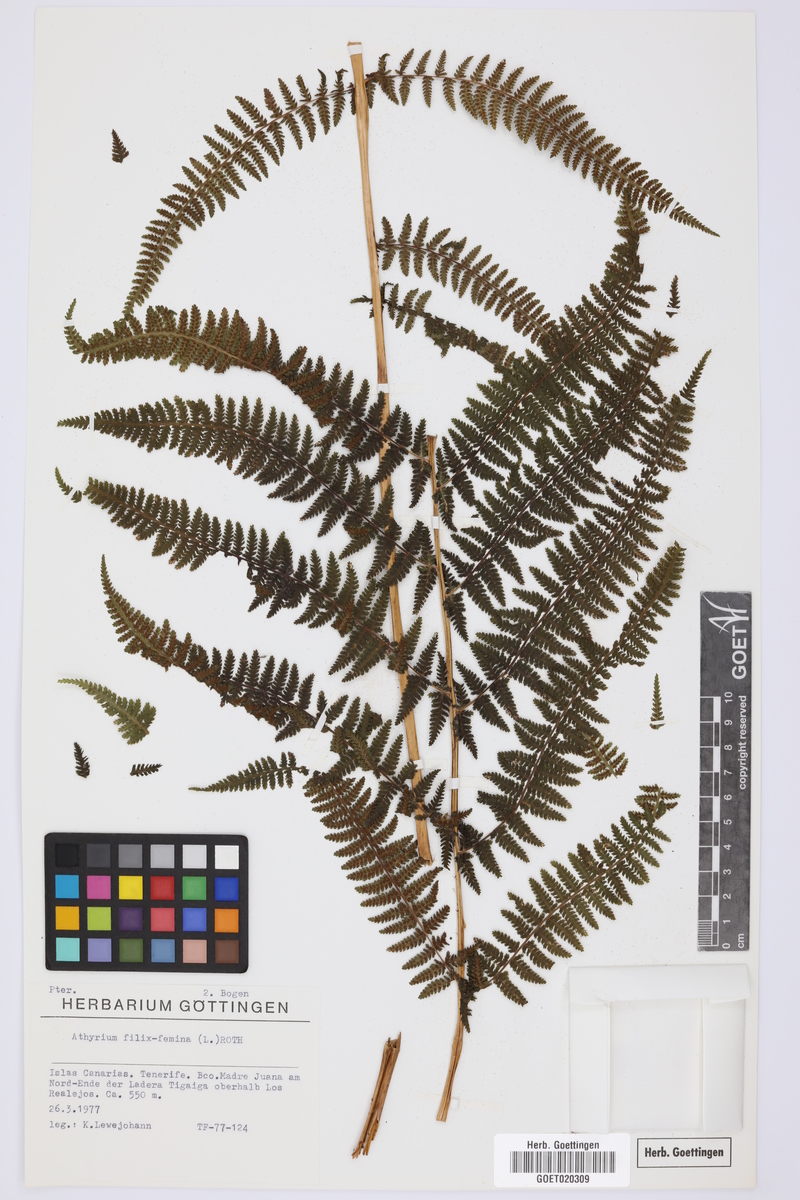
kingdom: Plantae
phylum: Tracheophyta
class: Polypodiopsida
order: Polypodiales
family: Athyriaceae
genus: Athyrium
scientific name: Athyrium filix-femina
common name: Lady fern
